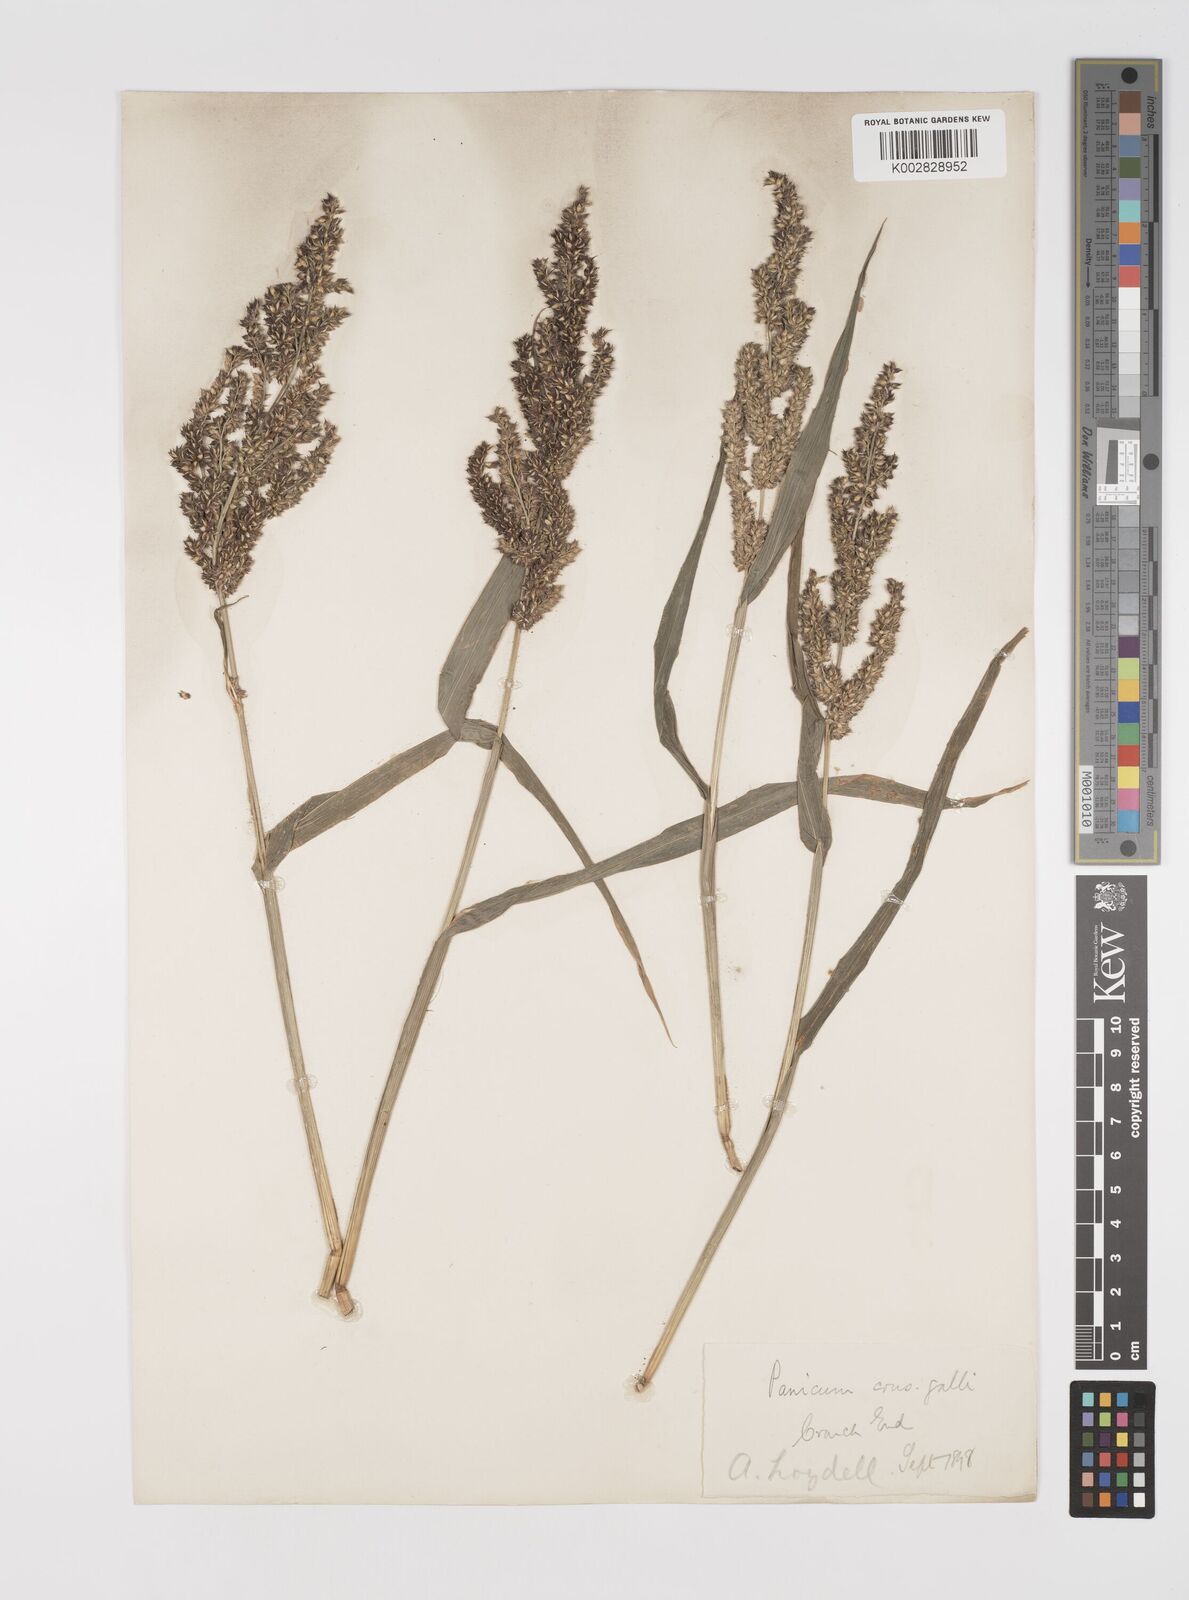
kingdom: Plantae
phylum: Tracheophyta
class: Liliopsida
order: Poales
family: Poaceae
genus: Echinochloa
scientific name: Echinochloa muricata
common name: American barnyard grass
